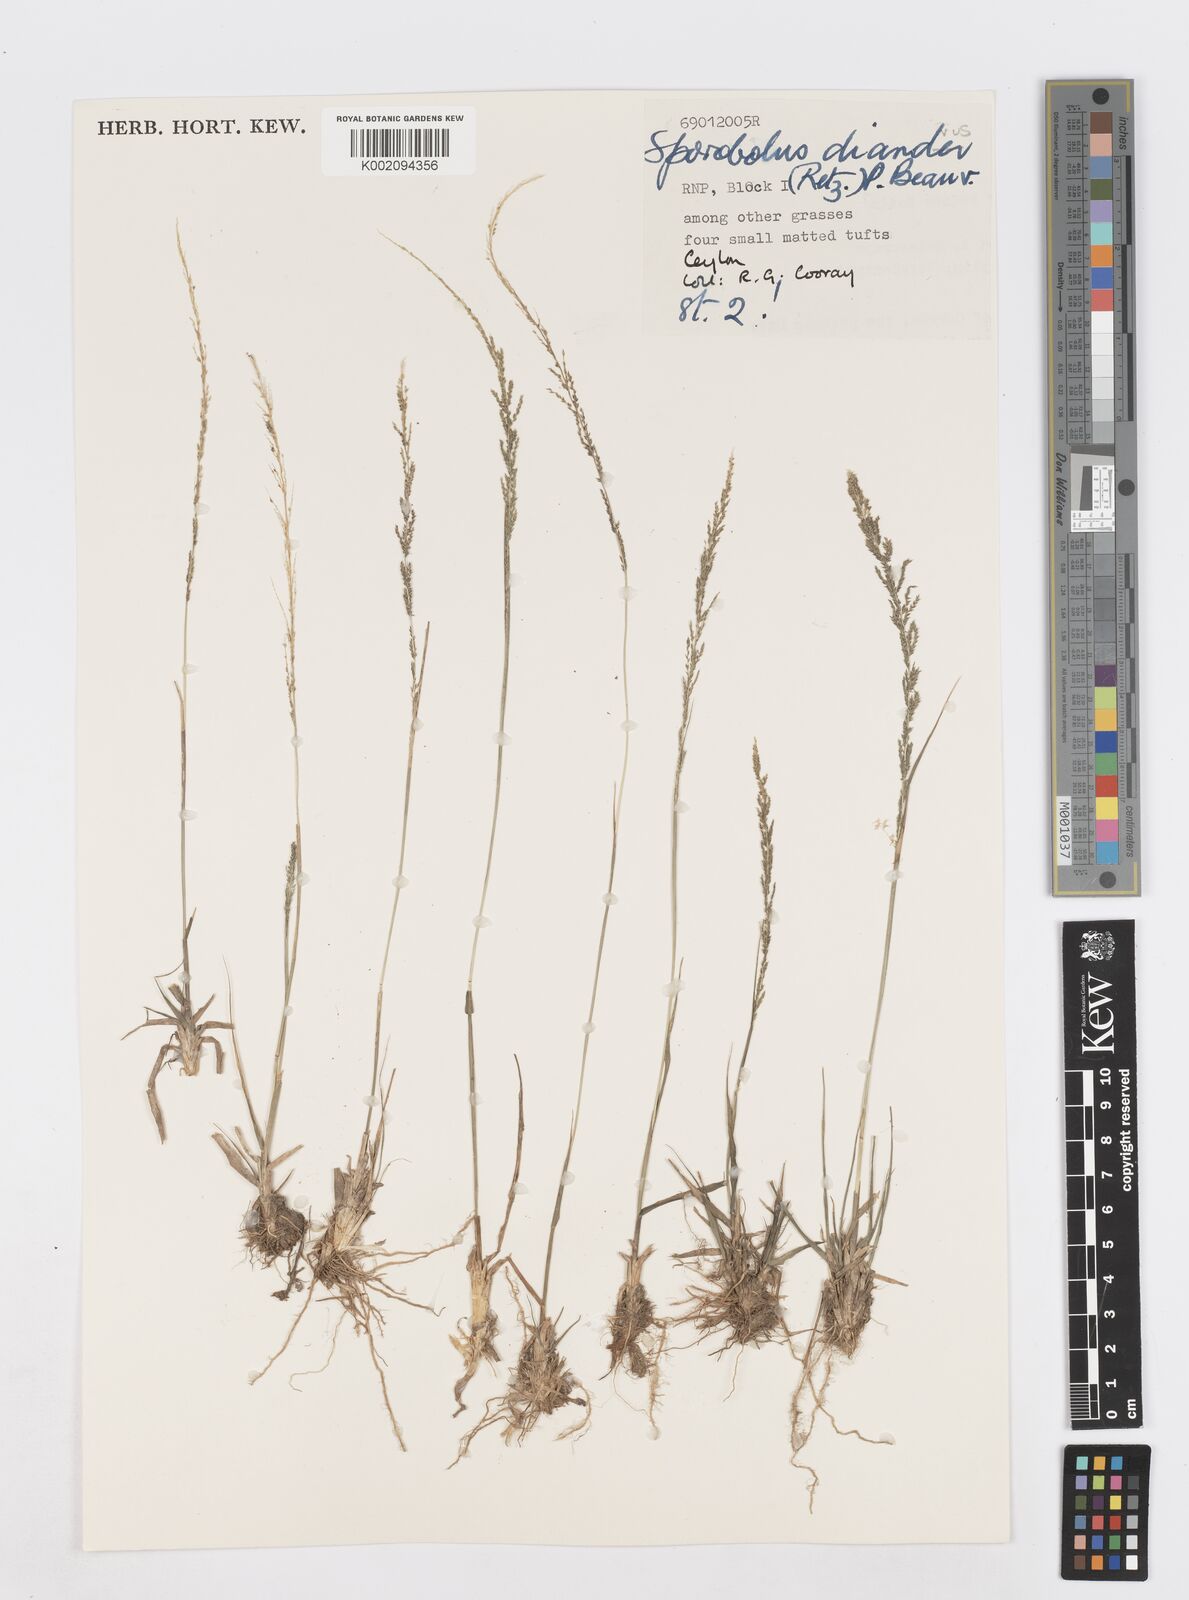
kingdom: Plantae
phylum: Tracheophyta
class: Liliopsida
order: Poales
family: Poaceae
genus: Sporobolus
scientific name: Sporobolus diandrus
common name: Tussock dropseed
